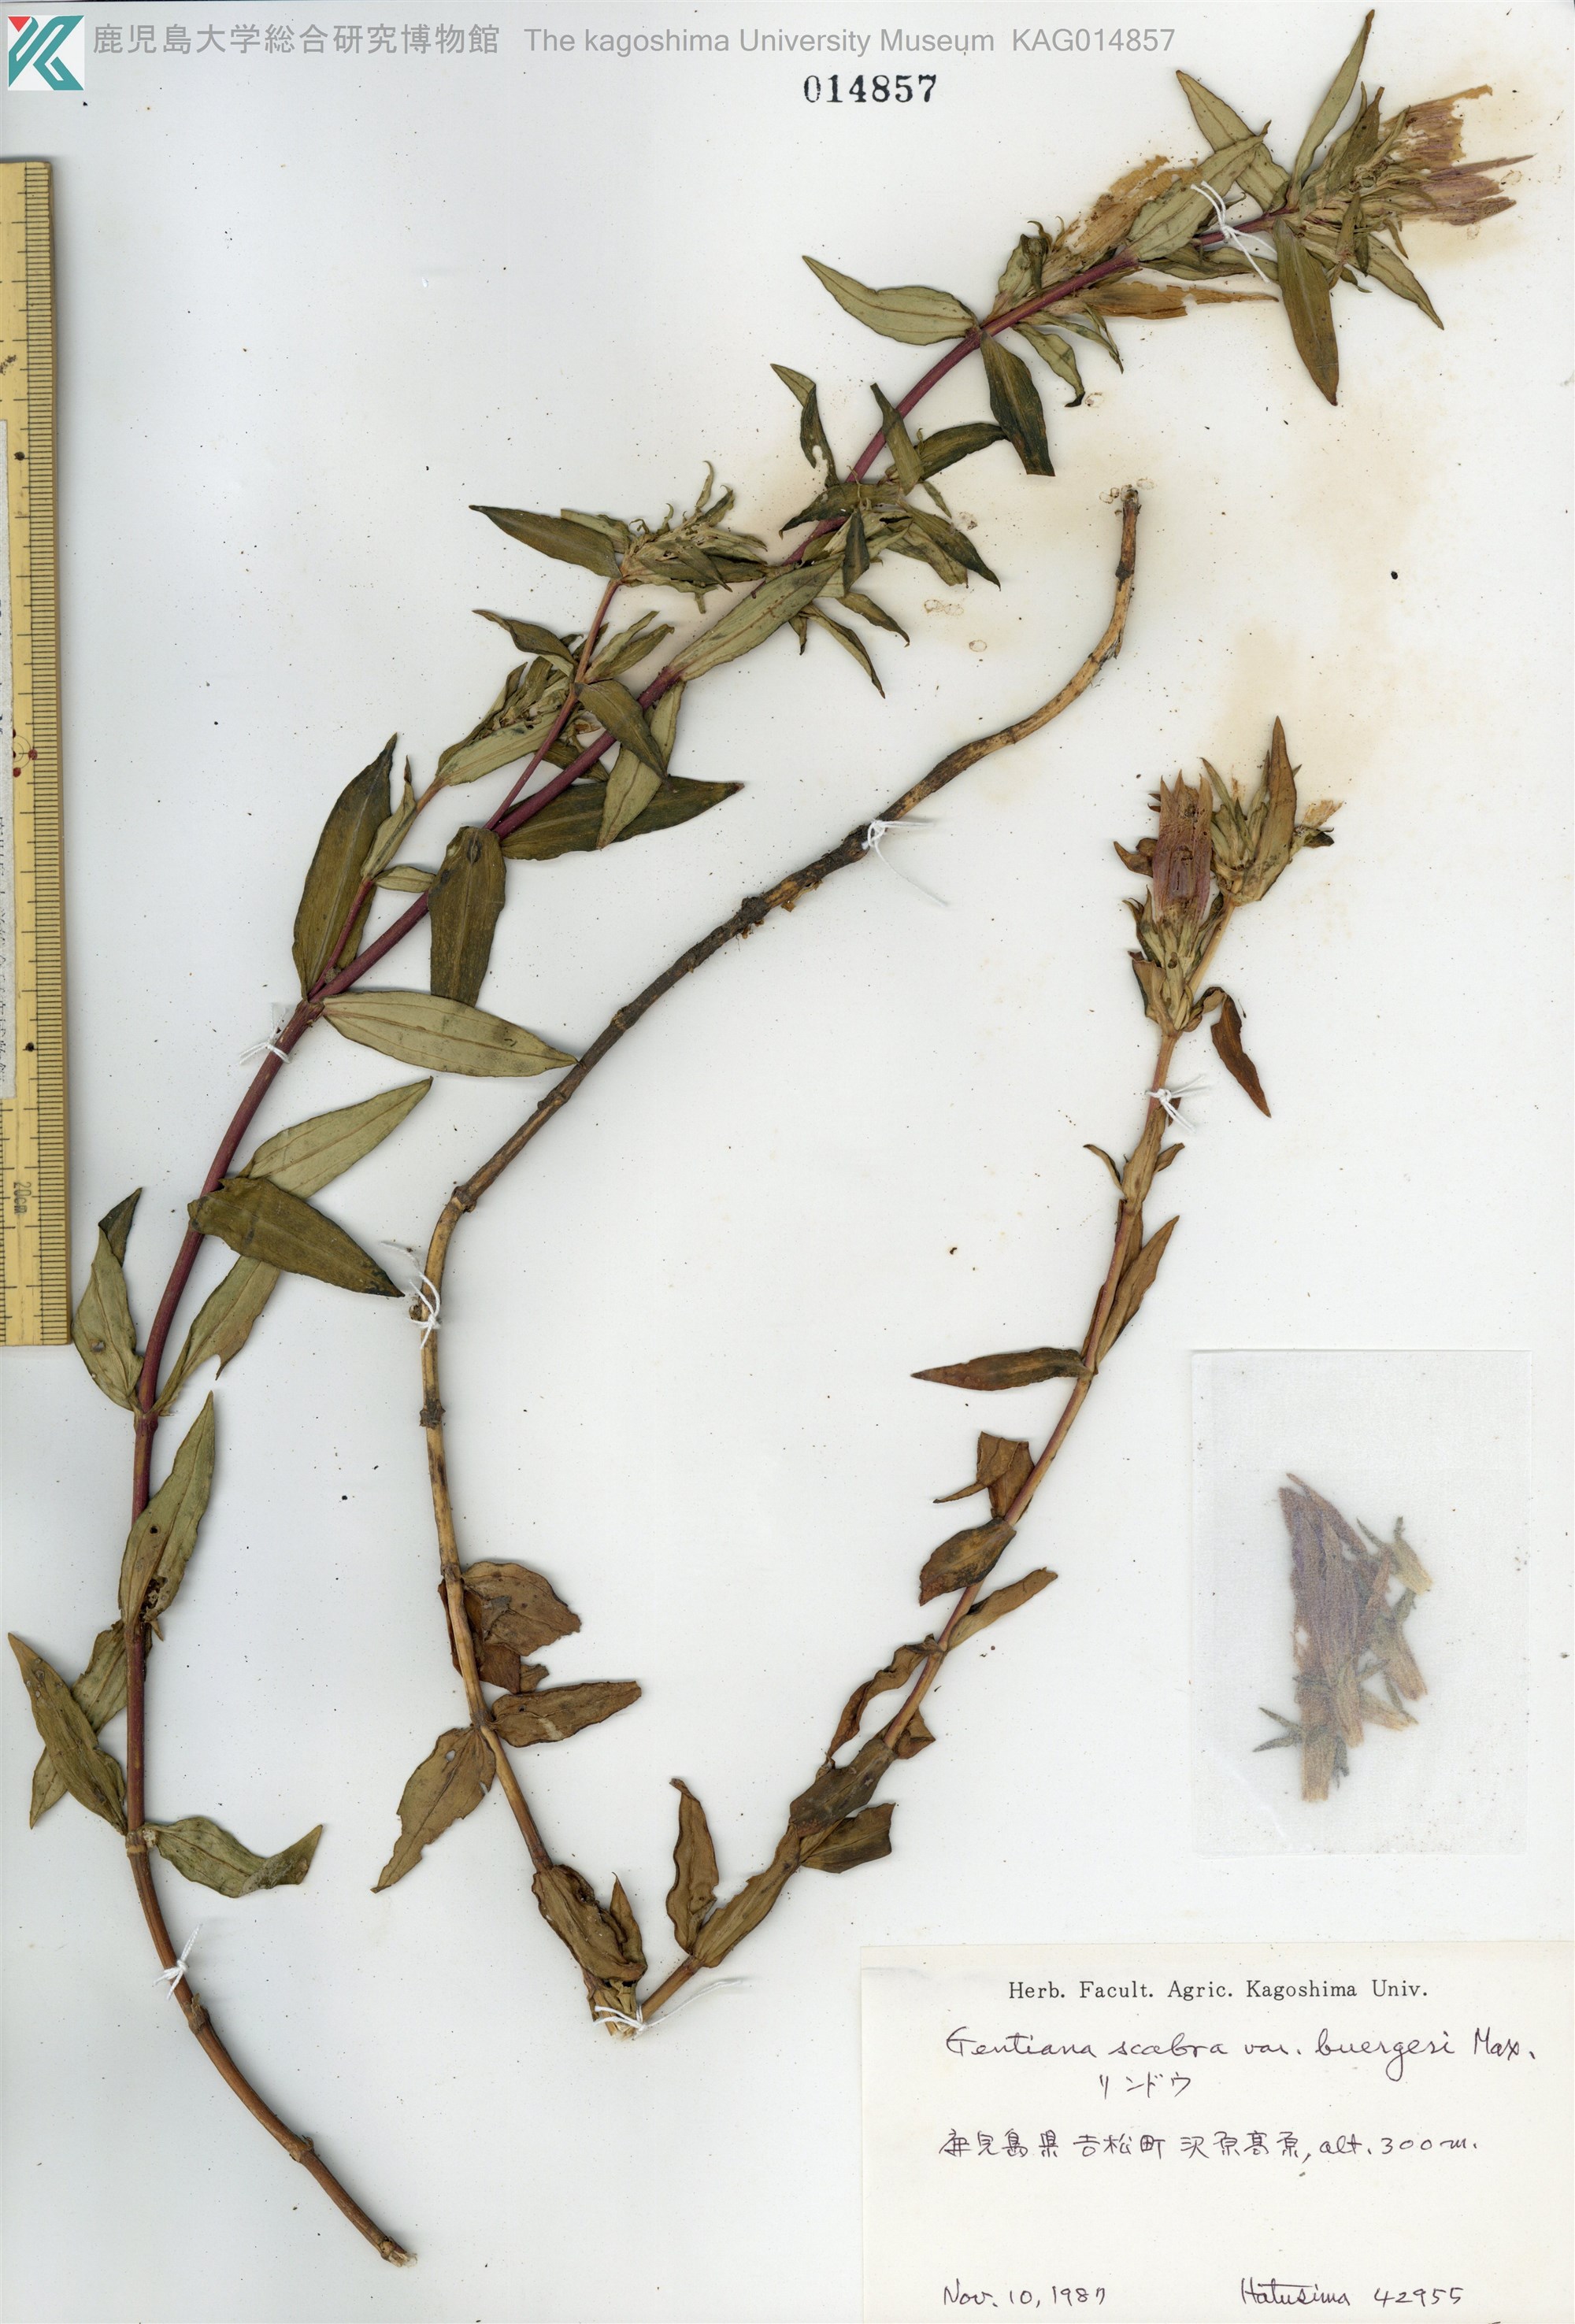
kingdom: Plantae
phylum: Tracheophyta
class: Magnoliopsida
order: Gentianales
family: Gentianaceae
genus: Gentiana
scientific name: Gentiana scabra
